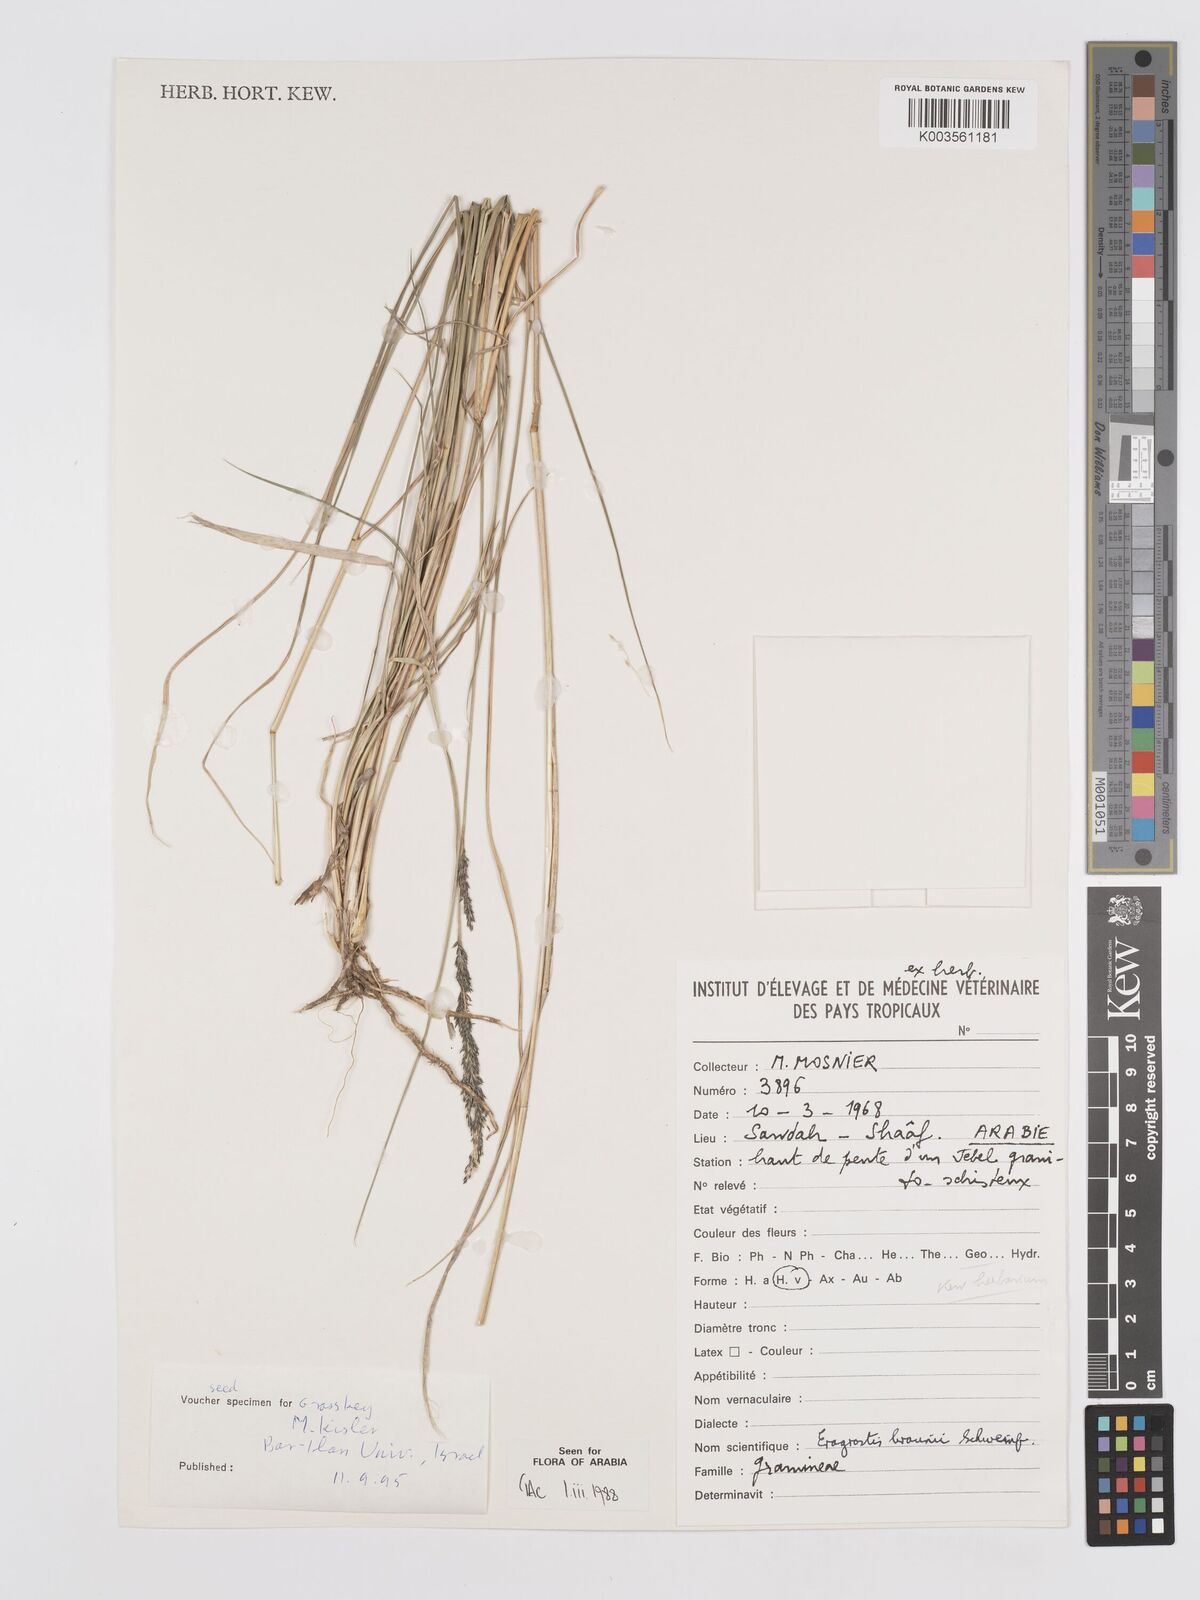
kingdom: Plantae
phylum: Tracheophyta
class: Liliopsida
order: Poales
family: Poaceae
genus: Eragrostis
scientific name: Eragrostis braunii
